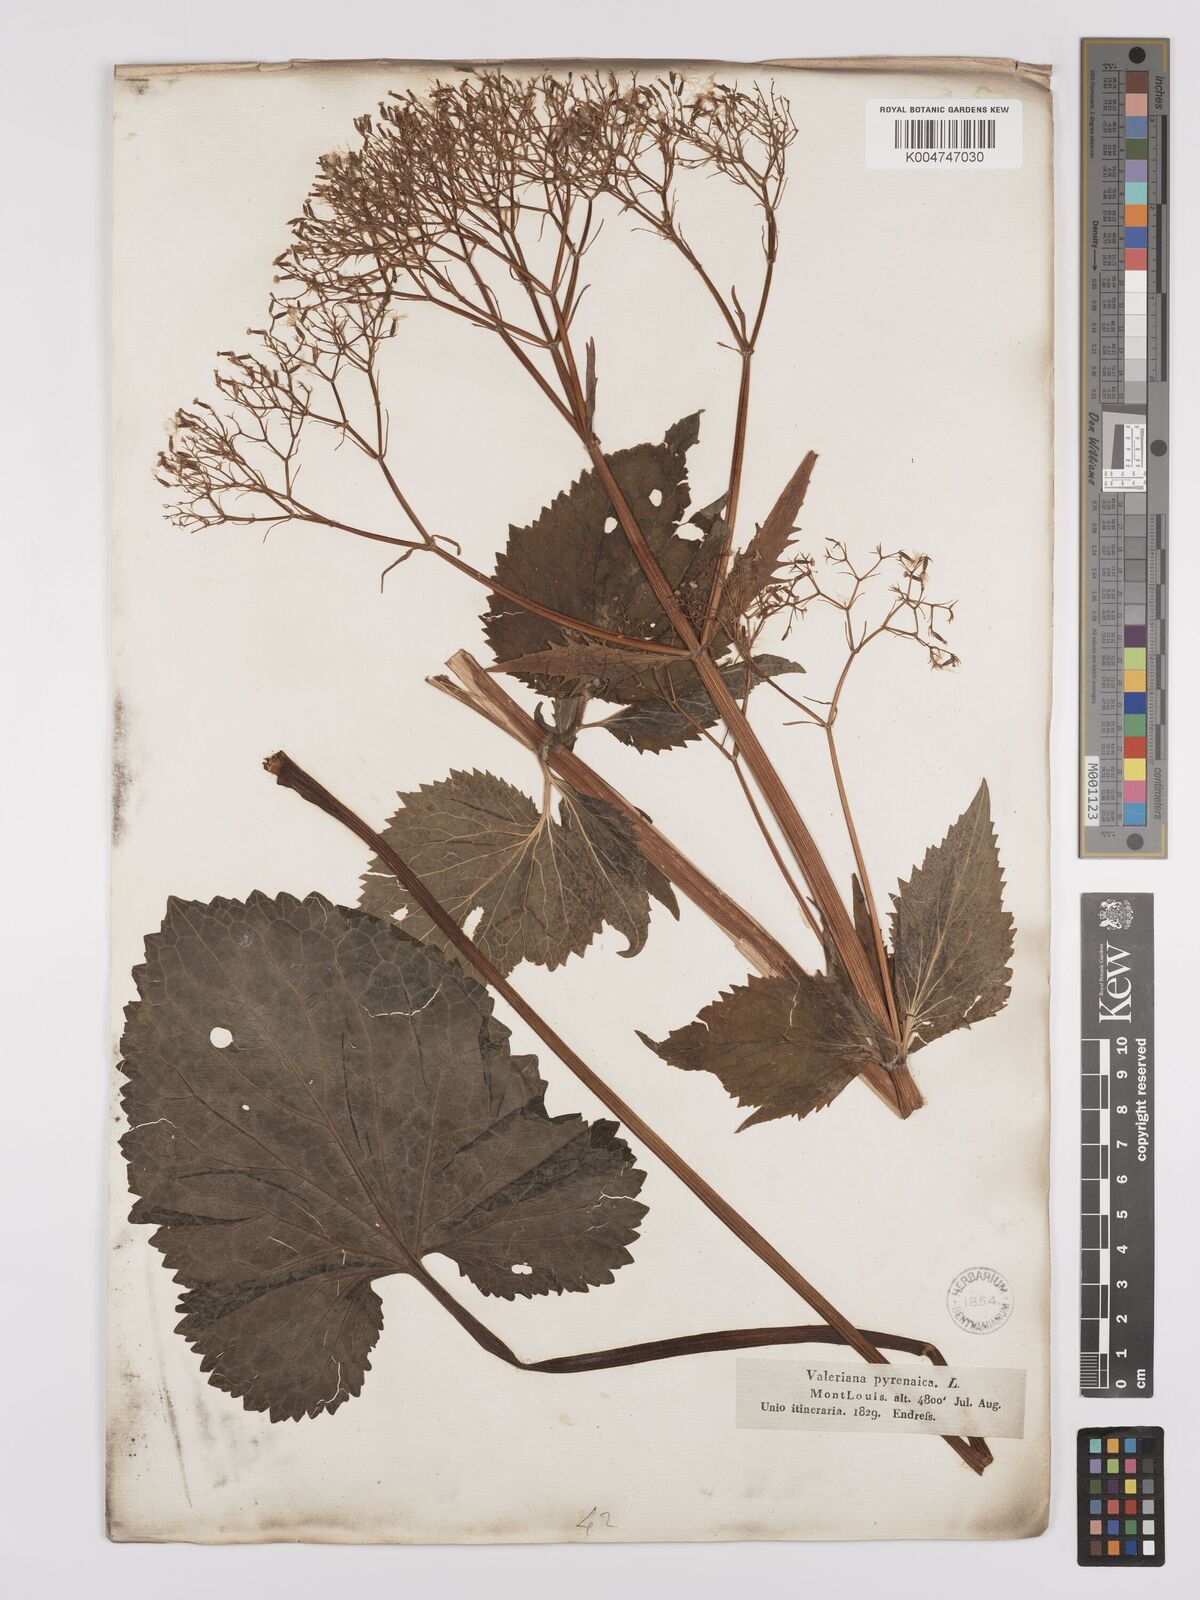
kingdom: Plantae
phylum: Tracheophyta
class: Magnoliopsida
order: Dipsacales
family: Caprifoliaceae
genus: Valeriana
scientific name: Valeriana pyrenaica
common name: Pyrenean valerian
